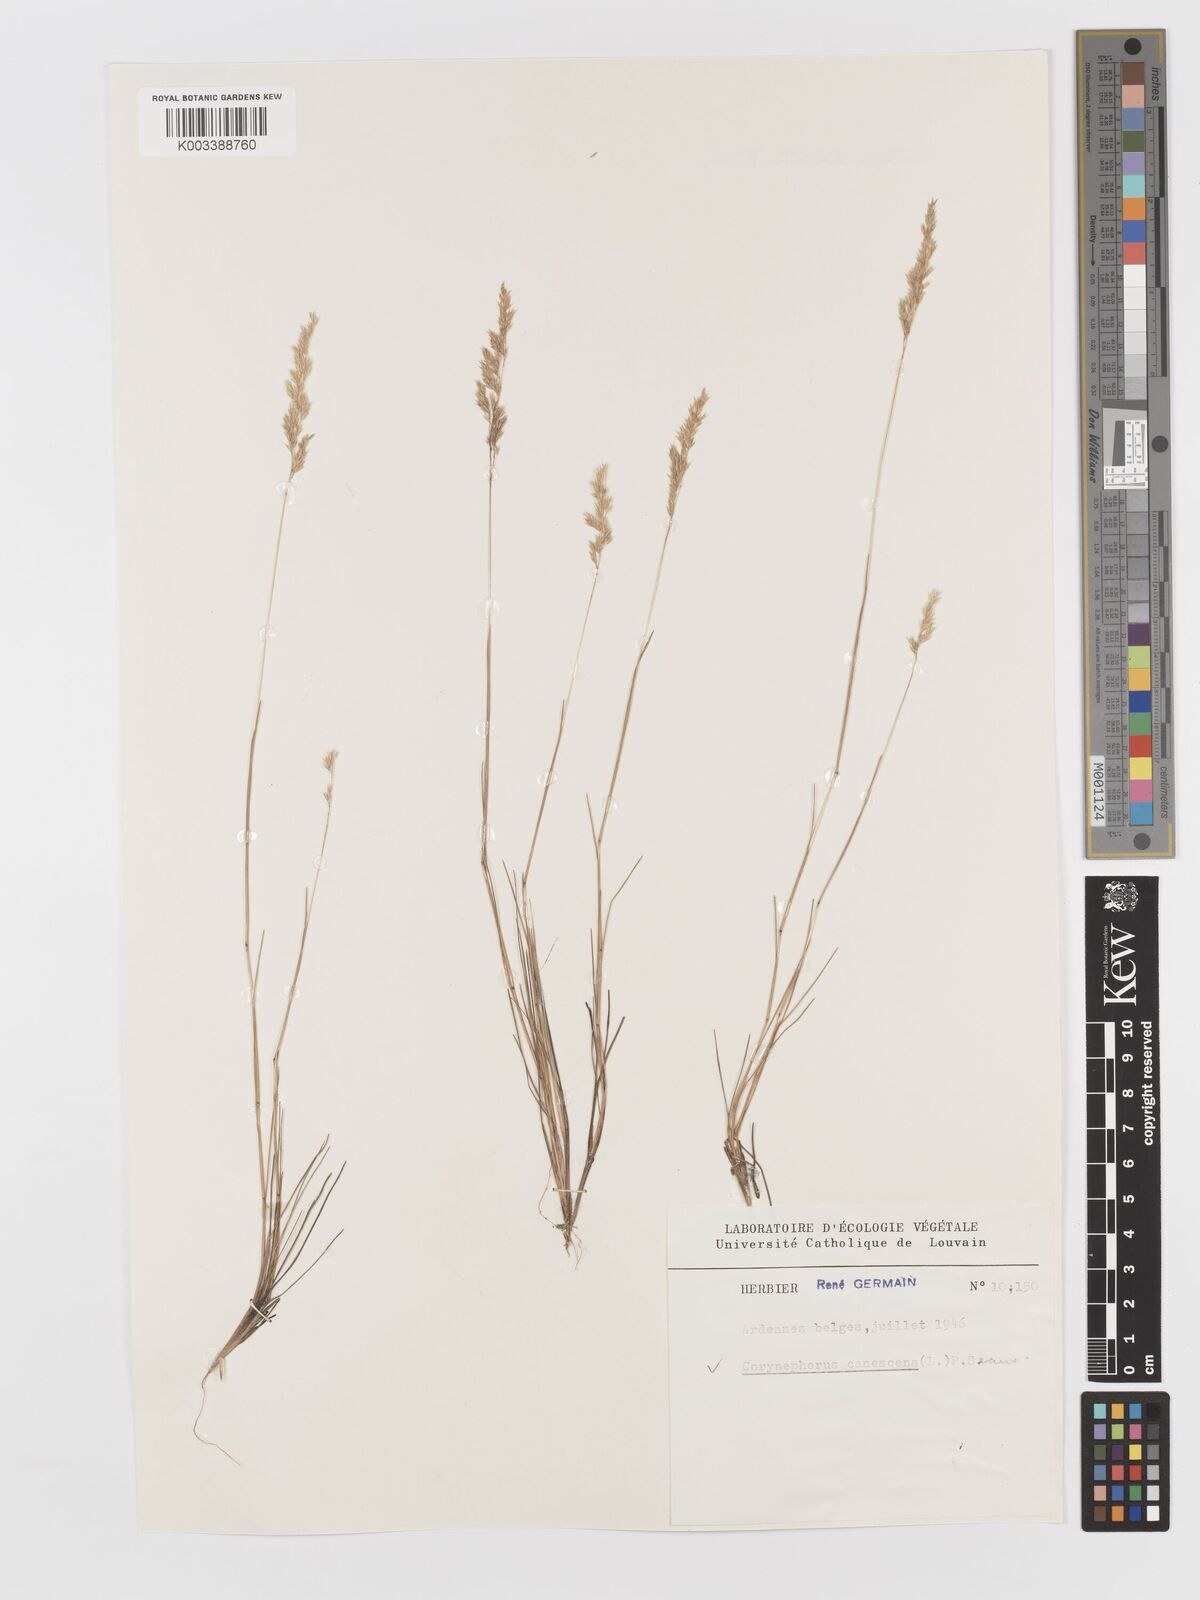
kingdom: Plantae
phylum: Tracheophyta
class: Liliopsida
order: Poales
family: Poaceae
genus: Corynephorus
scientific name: Corynephorus canescens
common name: Grey hair-grass
